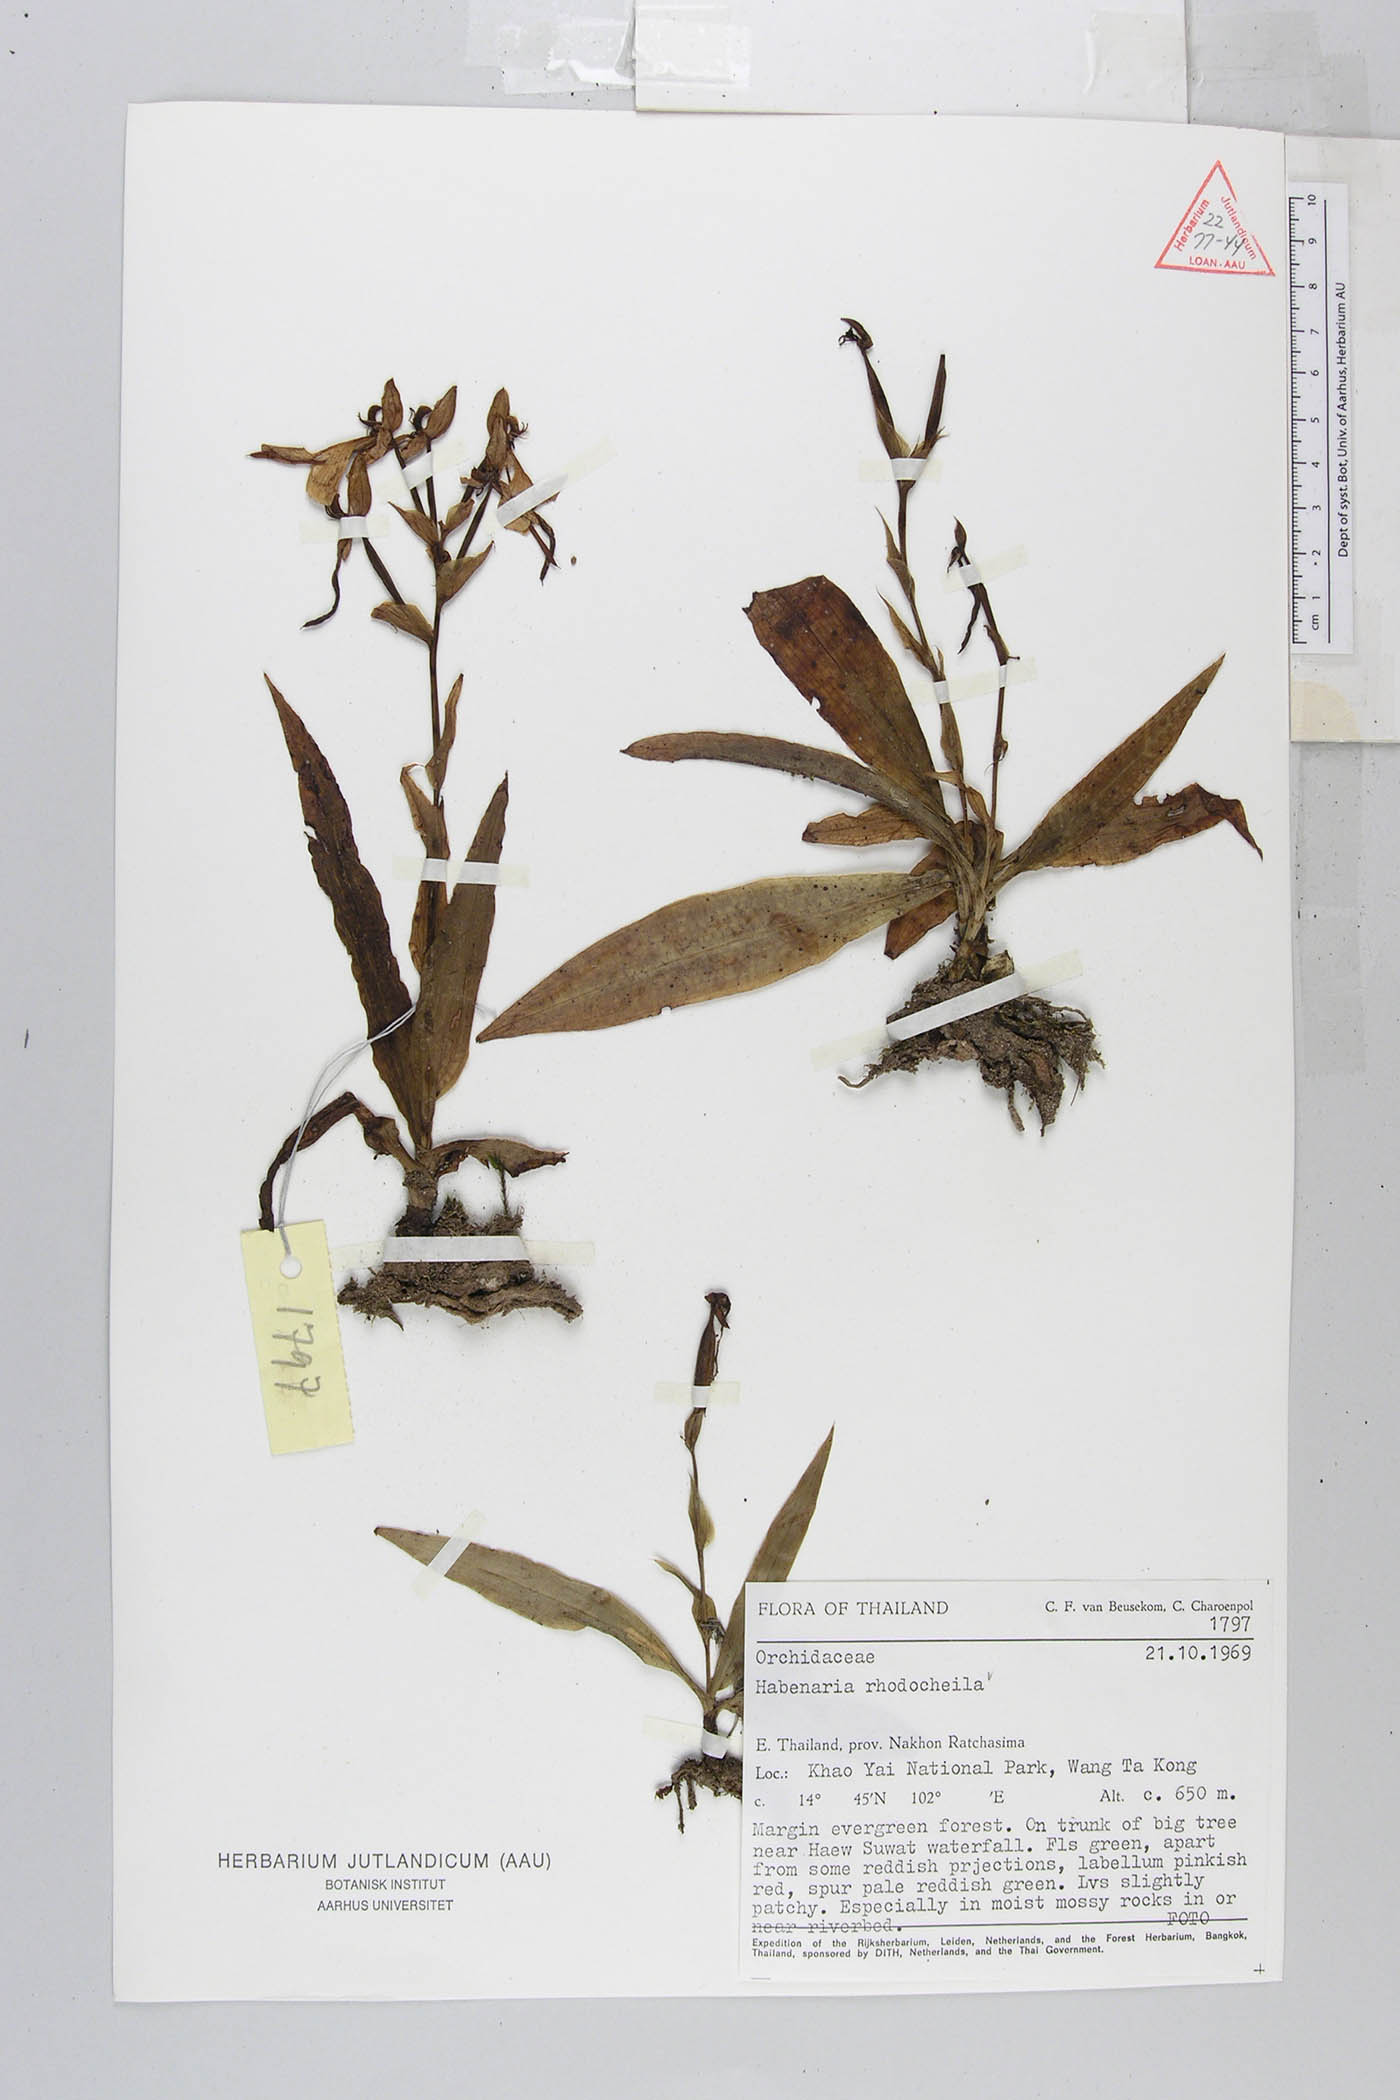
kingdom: Plantae
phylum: Tracheophyta
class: Liliopsida
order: Asparagales
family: Orchidaceae
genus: Habenaria
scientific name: Habenaria rhodocheila
